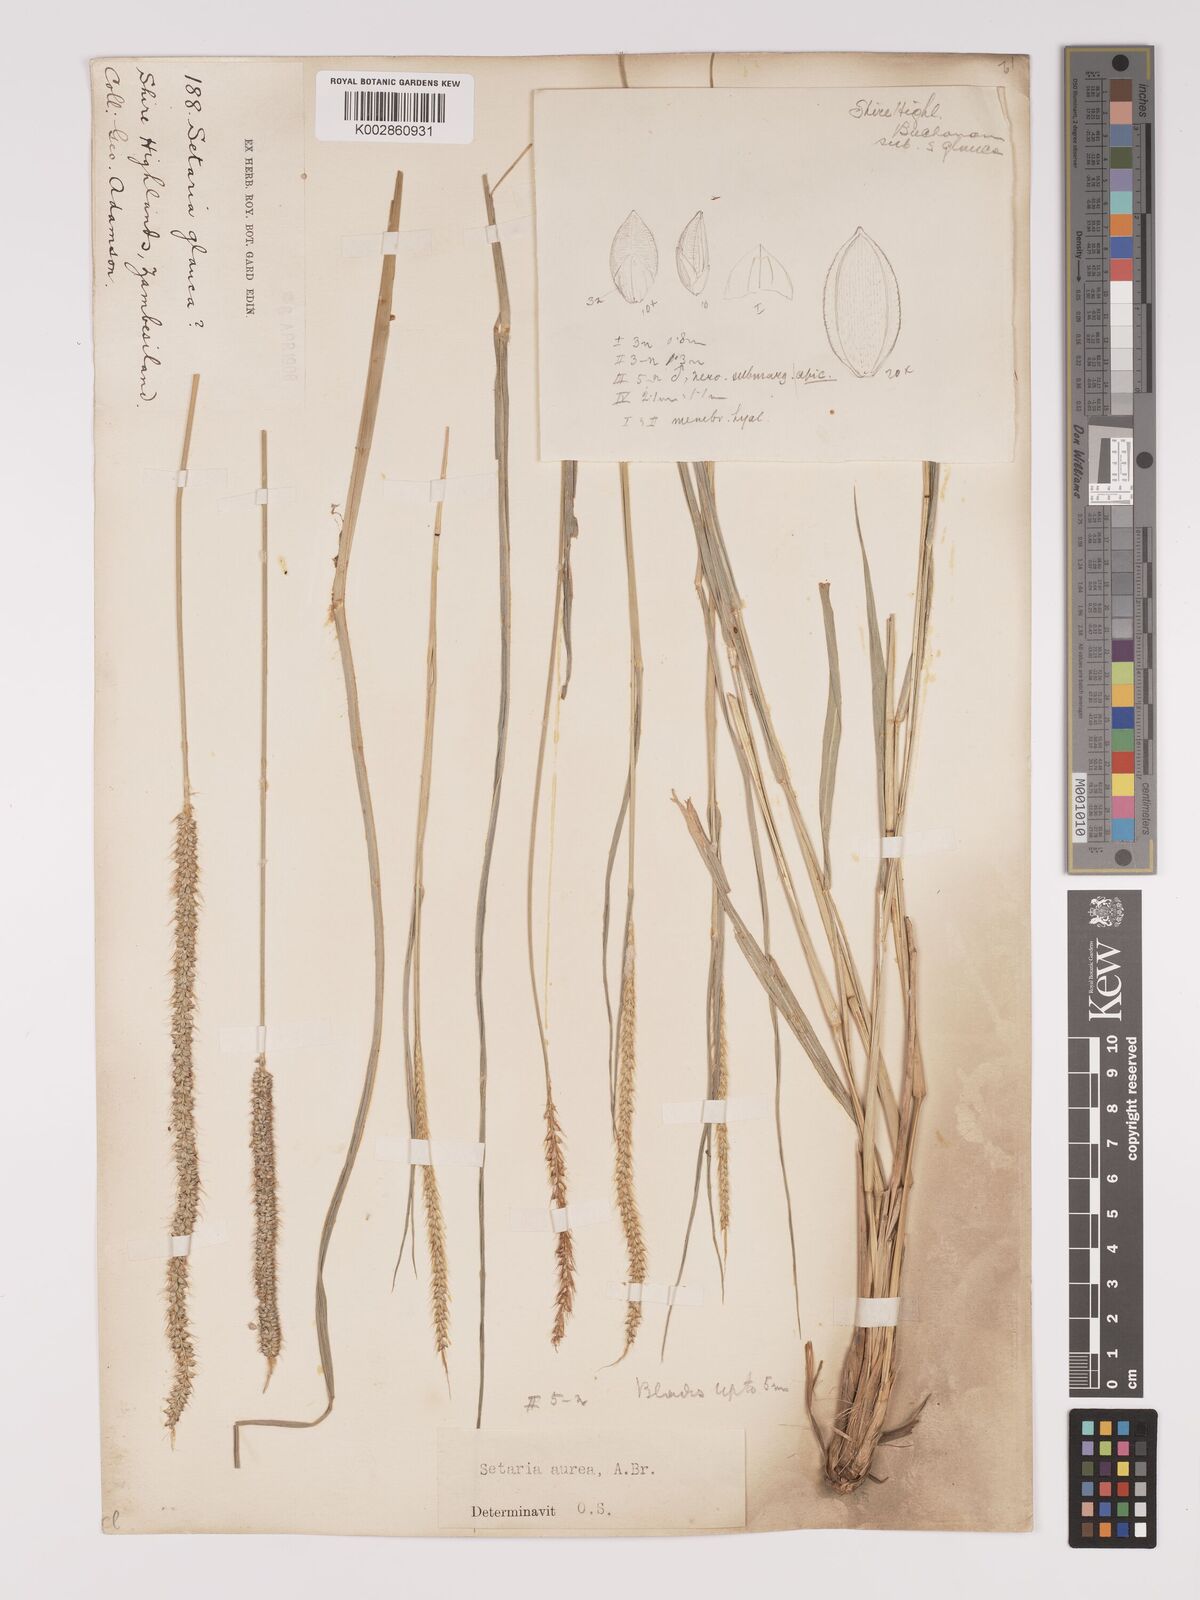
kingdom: Plantae
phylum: Tracheophyta
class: Liliopsida
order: Poales
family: Poaceae
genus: Setaria
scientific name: Setaria sphacelata
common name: African bristlegrass
